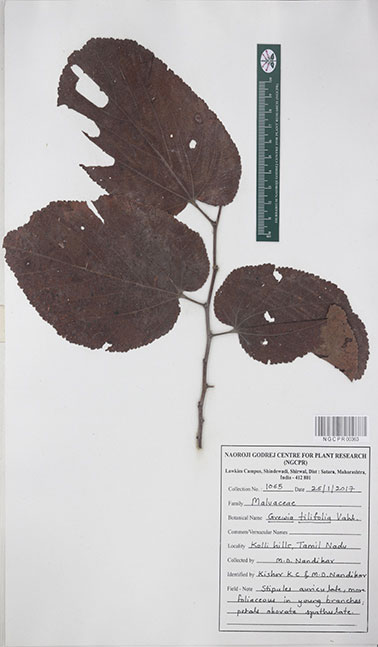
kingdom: Plantae
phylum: Tracheophyta
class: Magnoliopsida
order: Malvales
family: Malvaceae
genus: Grewia
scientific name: Grewia tiliifolia
